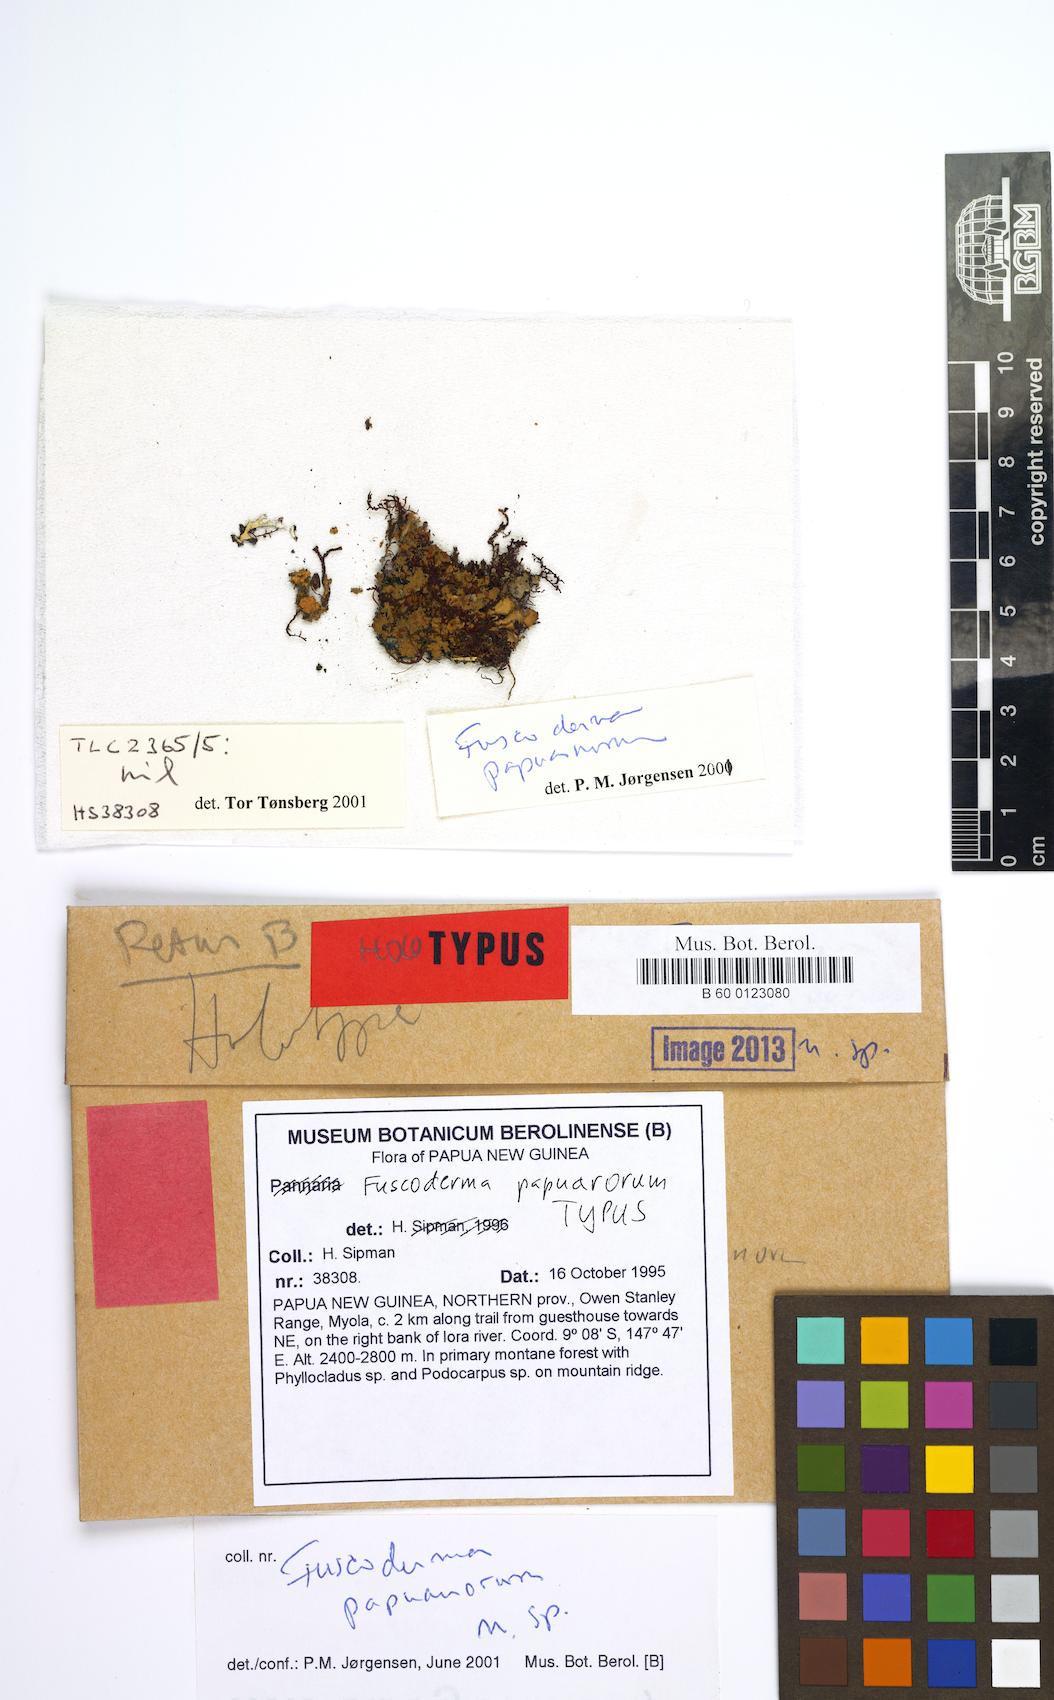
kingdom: Fungi
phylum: Ascomycota
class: Lecanoromycetes
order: Peltigerales
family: Pannariaceae
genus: Fuscoderma
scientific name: Fuscoderma papuanum
